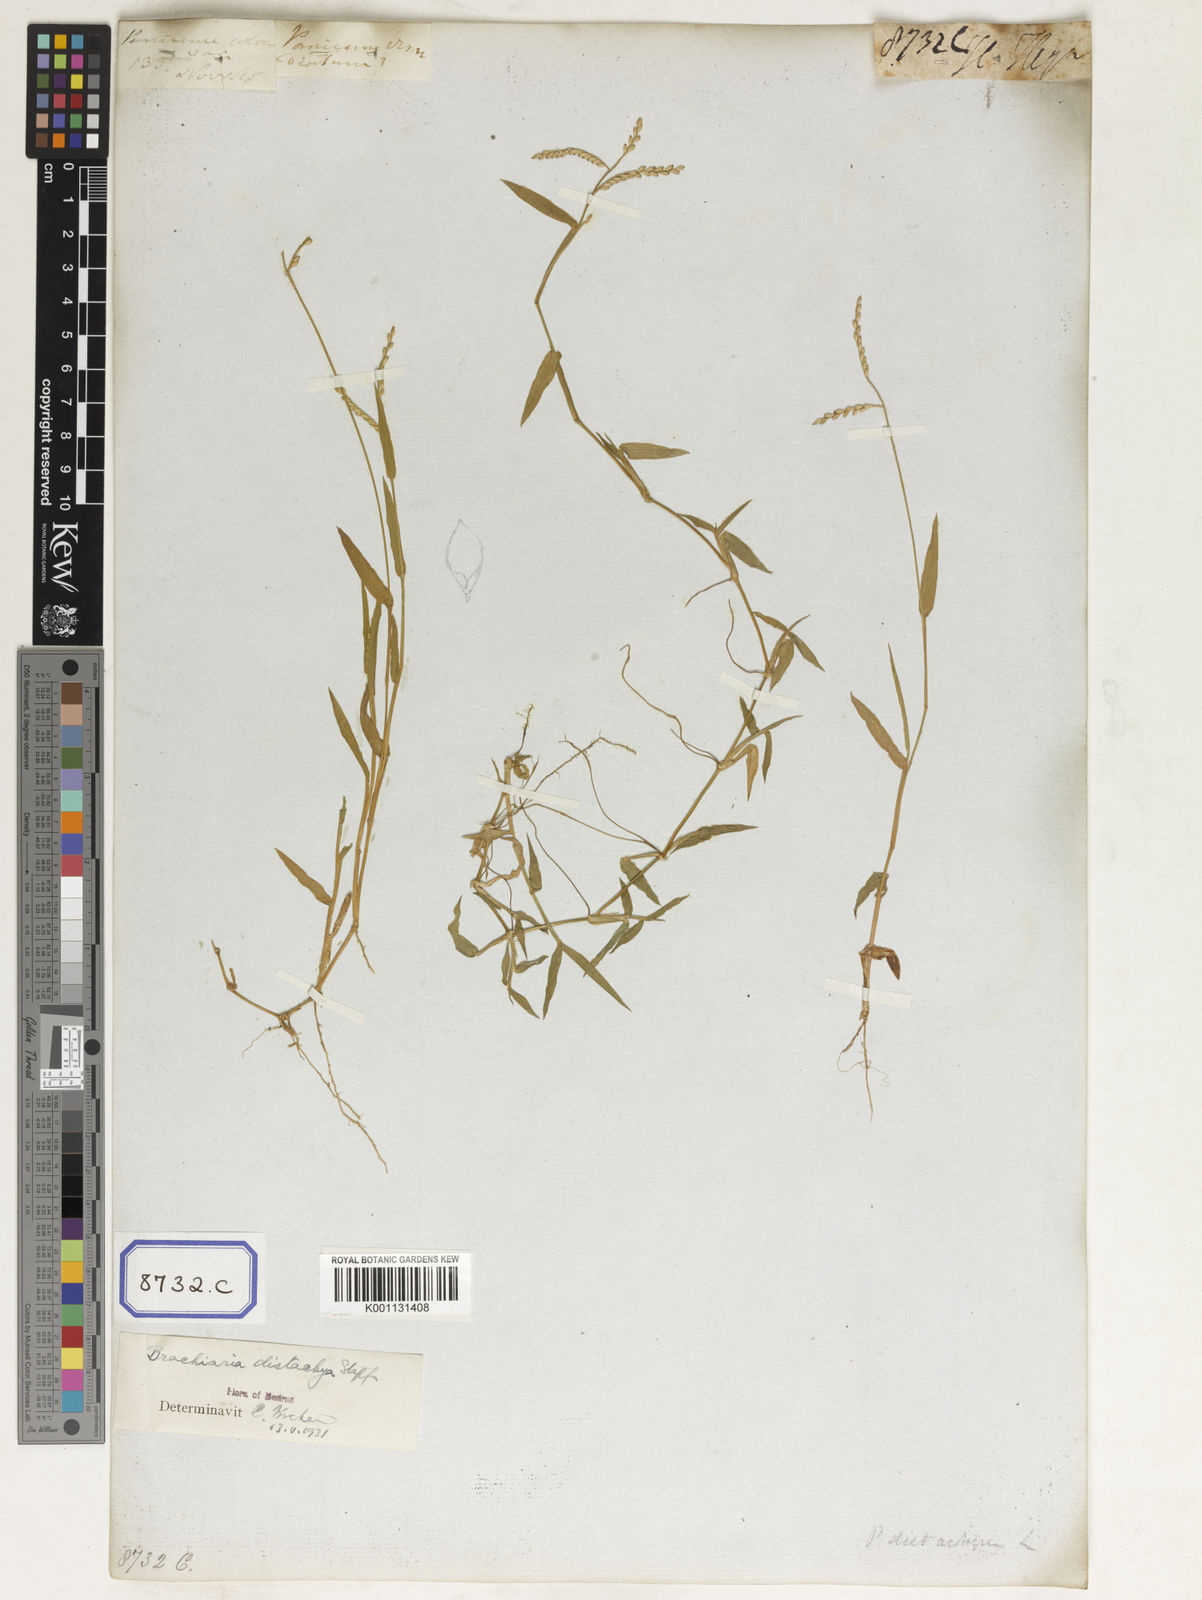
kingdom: Plantae
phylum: Tracheophyta
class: Liliopsida
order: Poales
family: Poaceae
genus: Panicum
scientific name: Panicum
